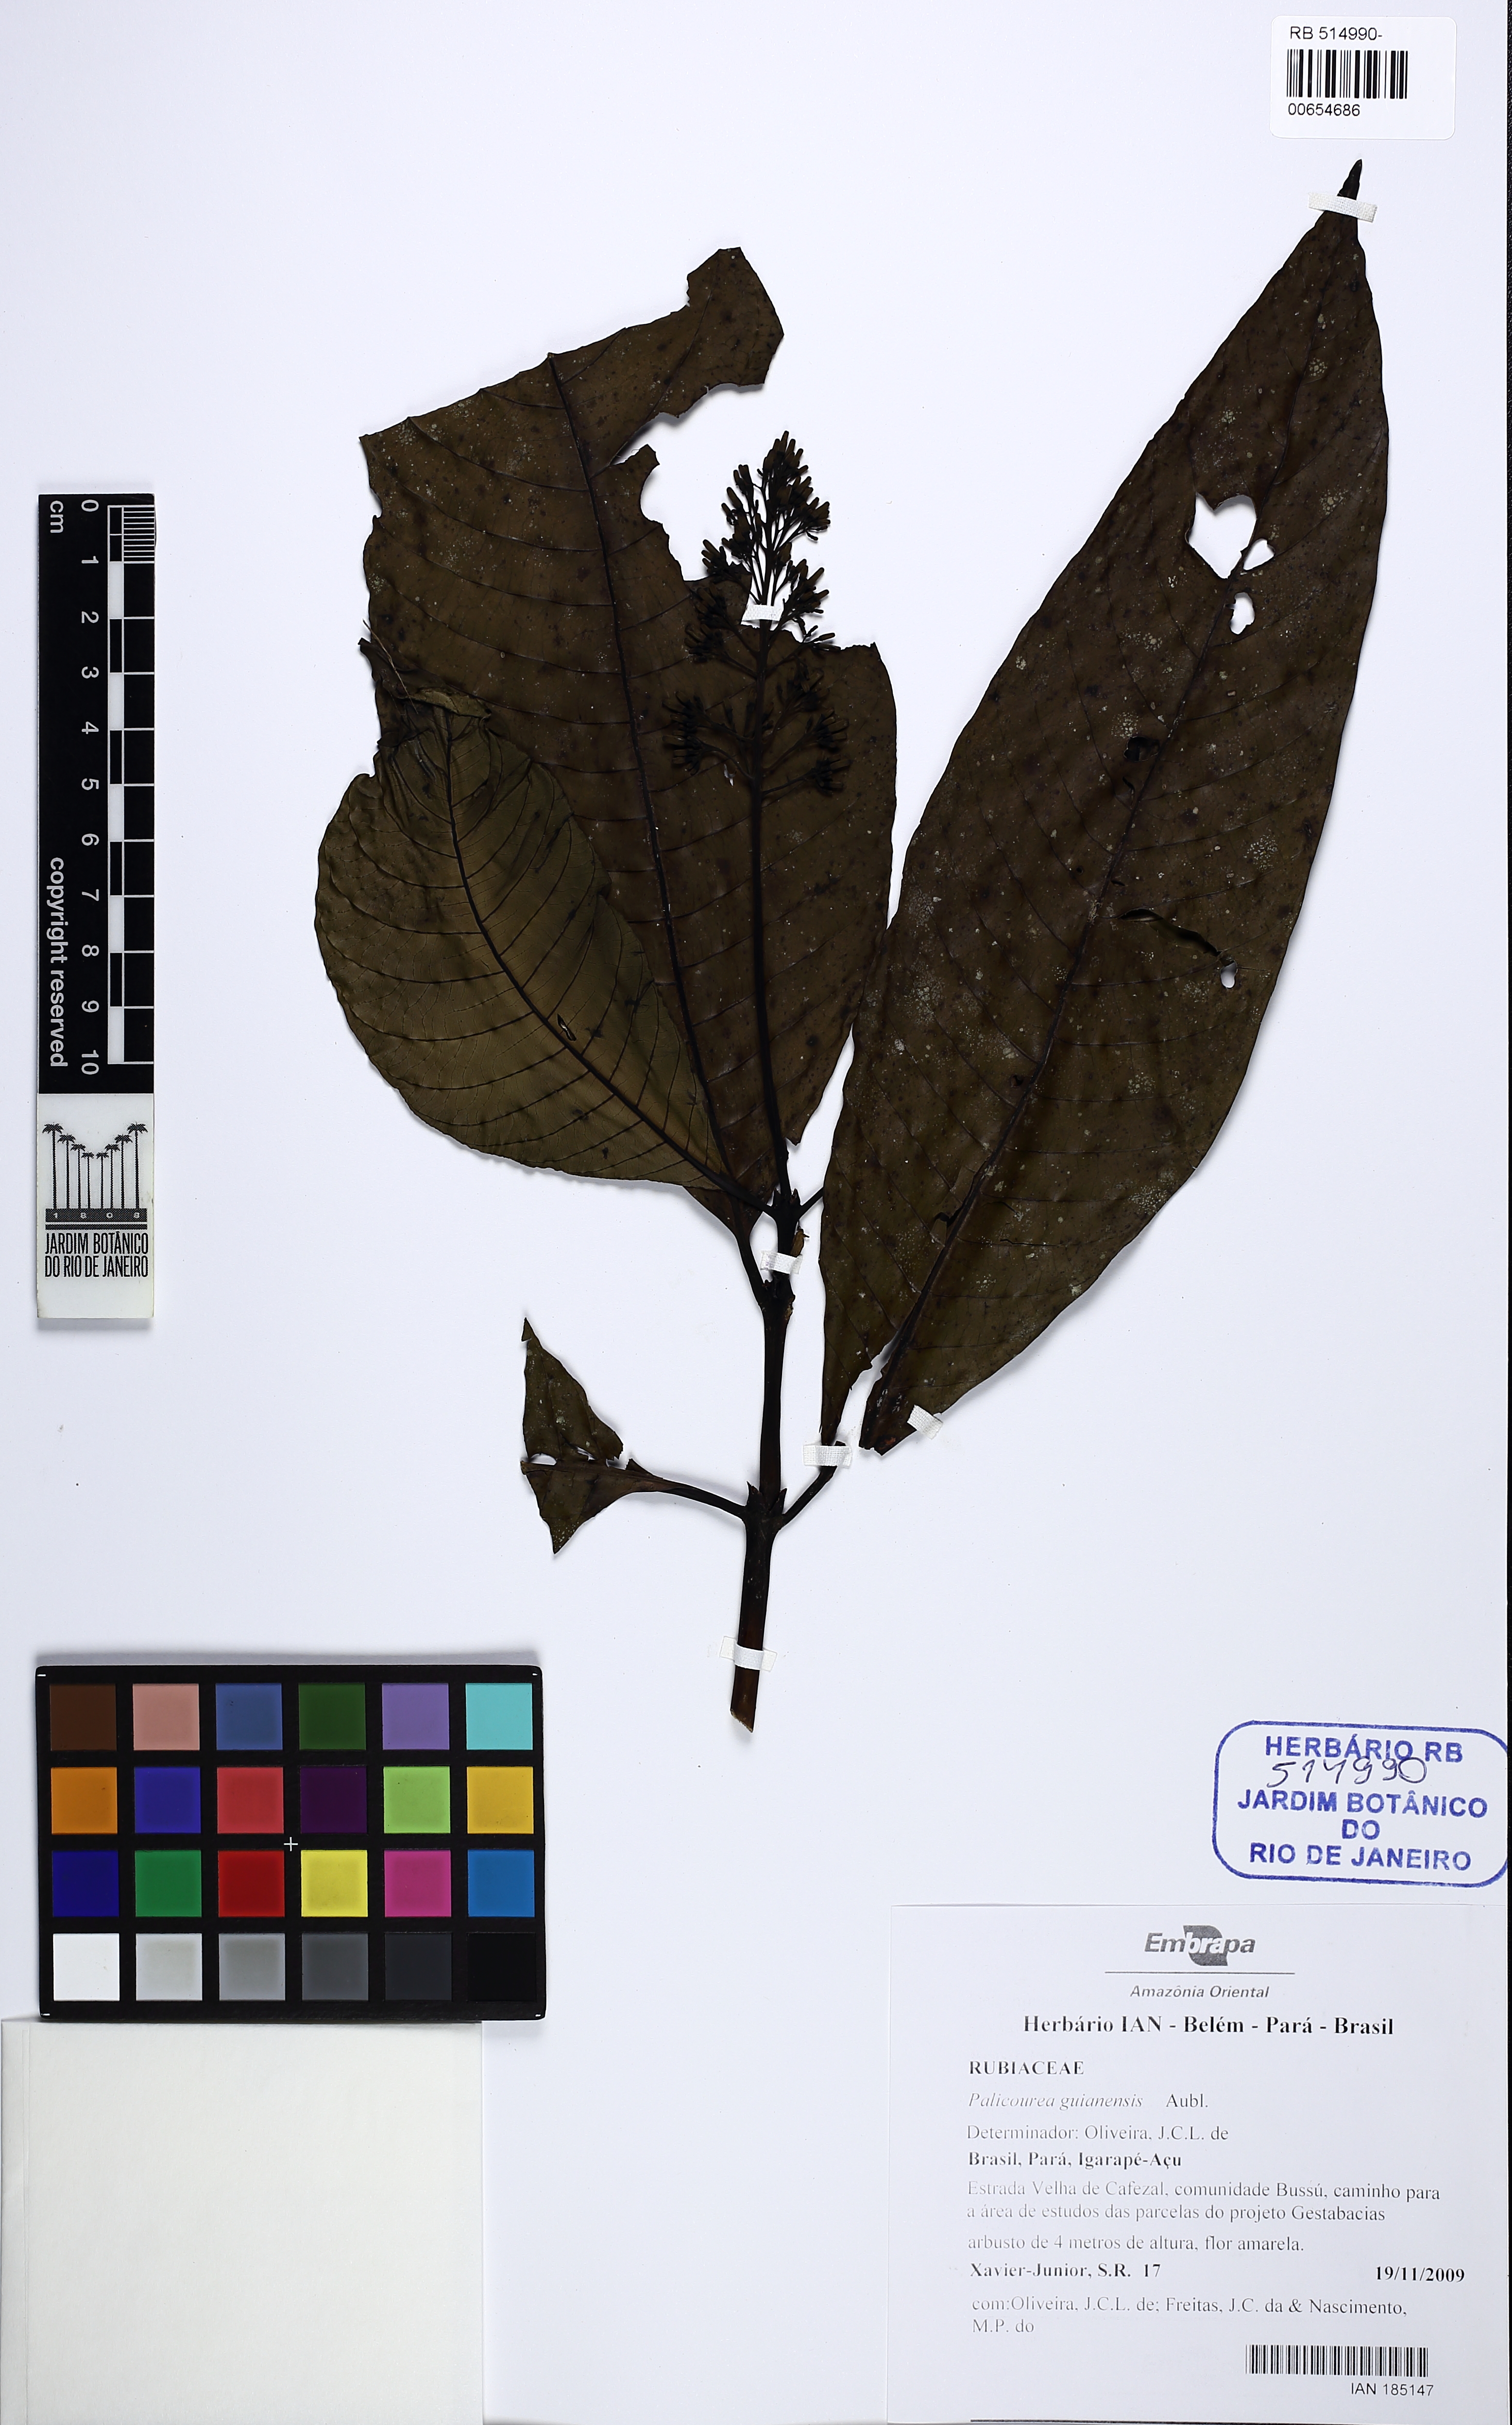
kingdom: Plantae
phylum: Tracheophyta
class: Magnoliopsida
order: Gentianales
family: Rubiaceae
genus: Palicourea
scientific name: Palicourea guianensis
